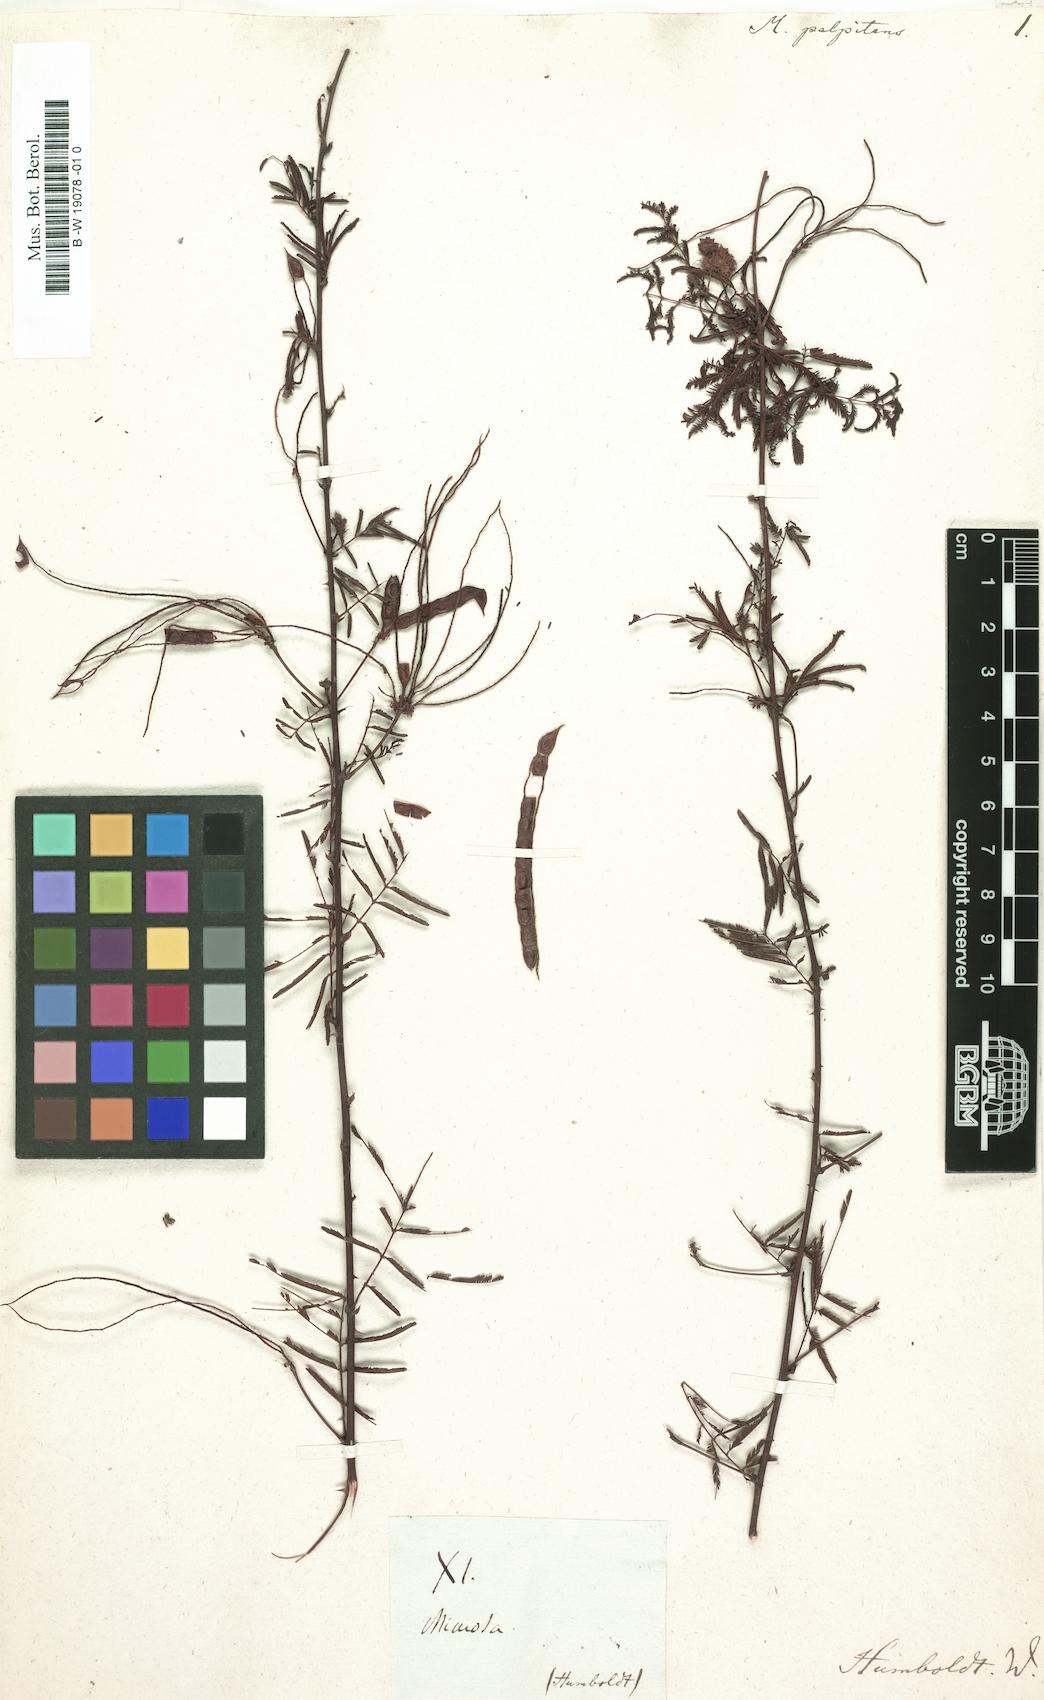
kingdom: Plantae
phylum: Tracheophyta
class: Magnoliopsida
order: Fabales
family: Fabaceae
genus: Mimosa
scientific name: Mimosa somnians
